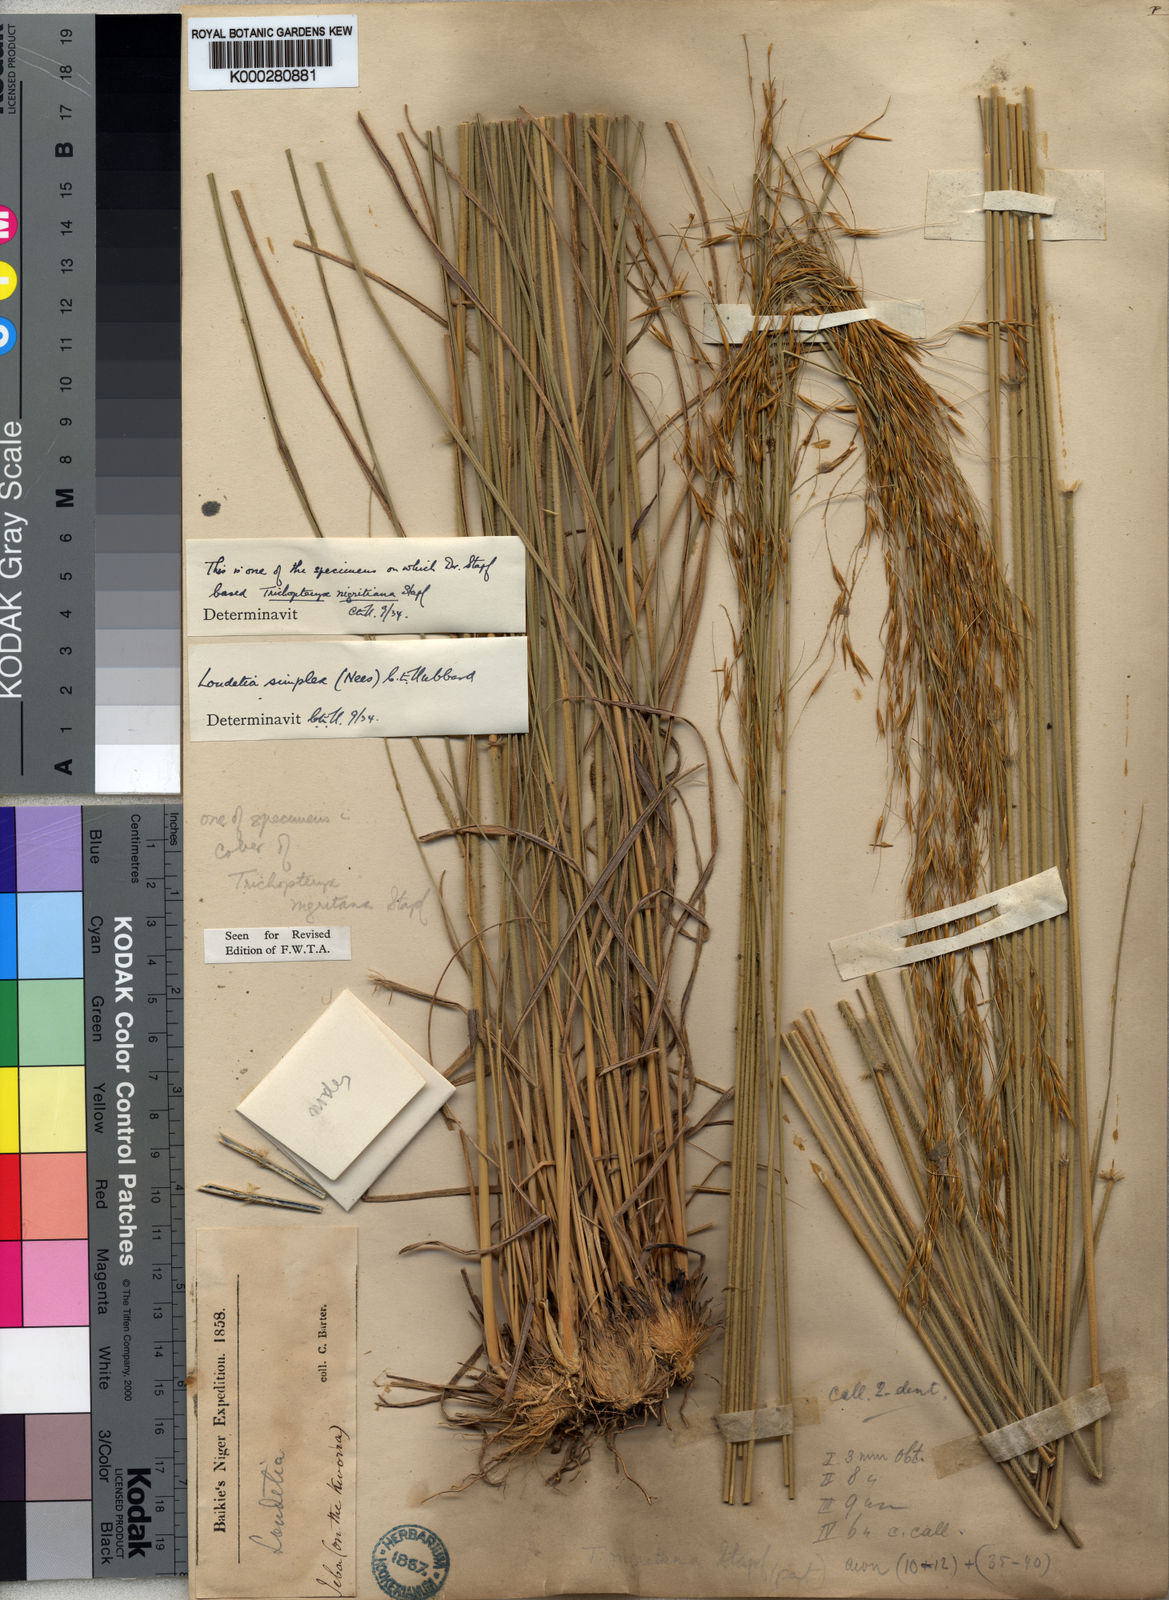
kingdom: Plantae
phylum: Tracheophyta
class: Liliopsida
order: Poales
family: Poaceae
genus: Loudetia
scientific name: Loudetia simplex
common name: Common russet grass
